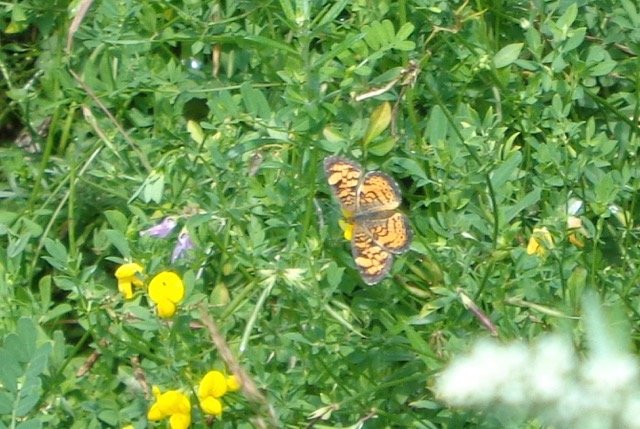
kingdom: Animalia
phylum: Arthropoda
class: Insecta
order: Lepidoptera
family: Nymphalidae
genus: Phyciodes
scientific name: Phyciodes tharos
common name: Pearl Crescent
